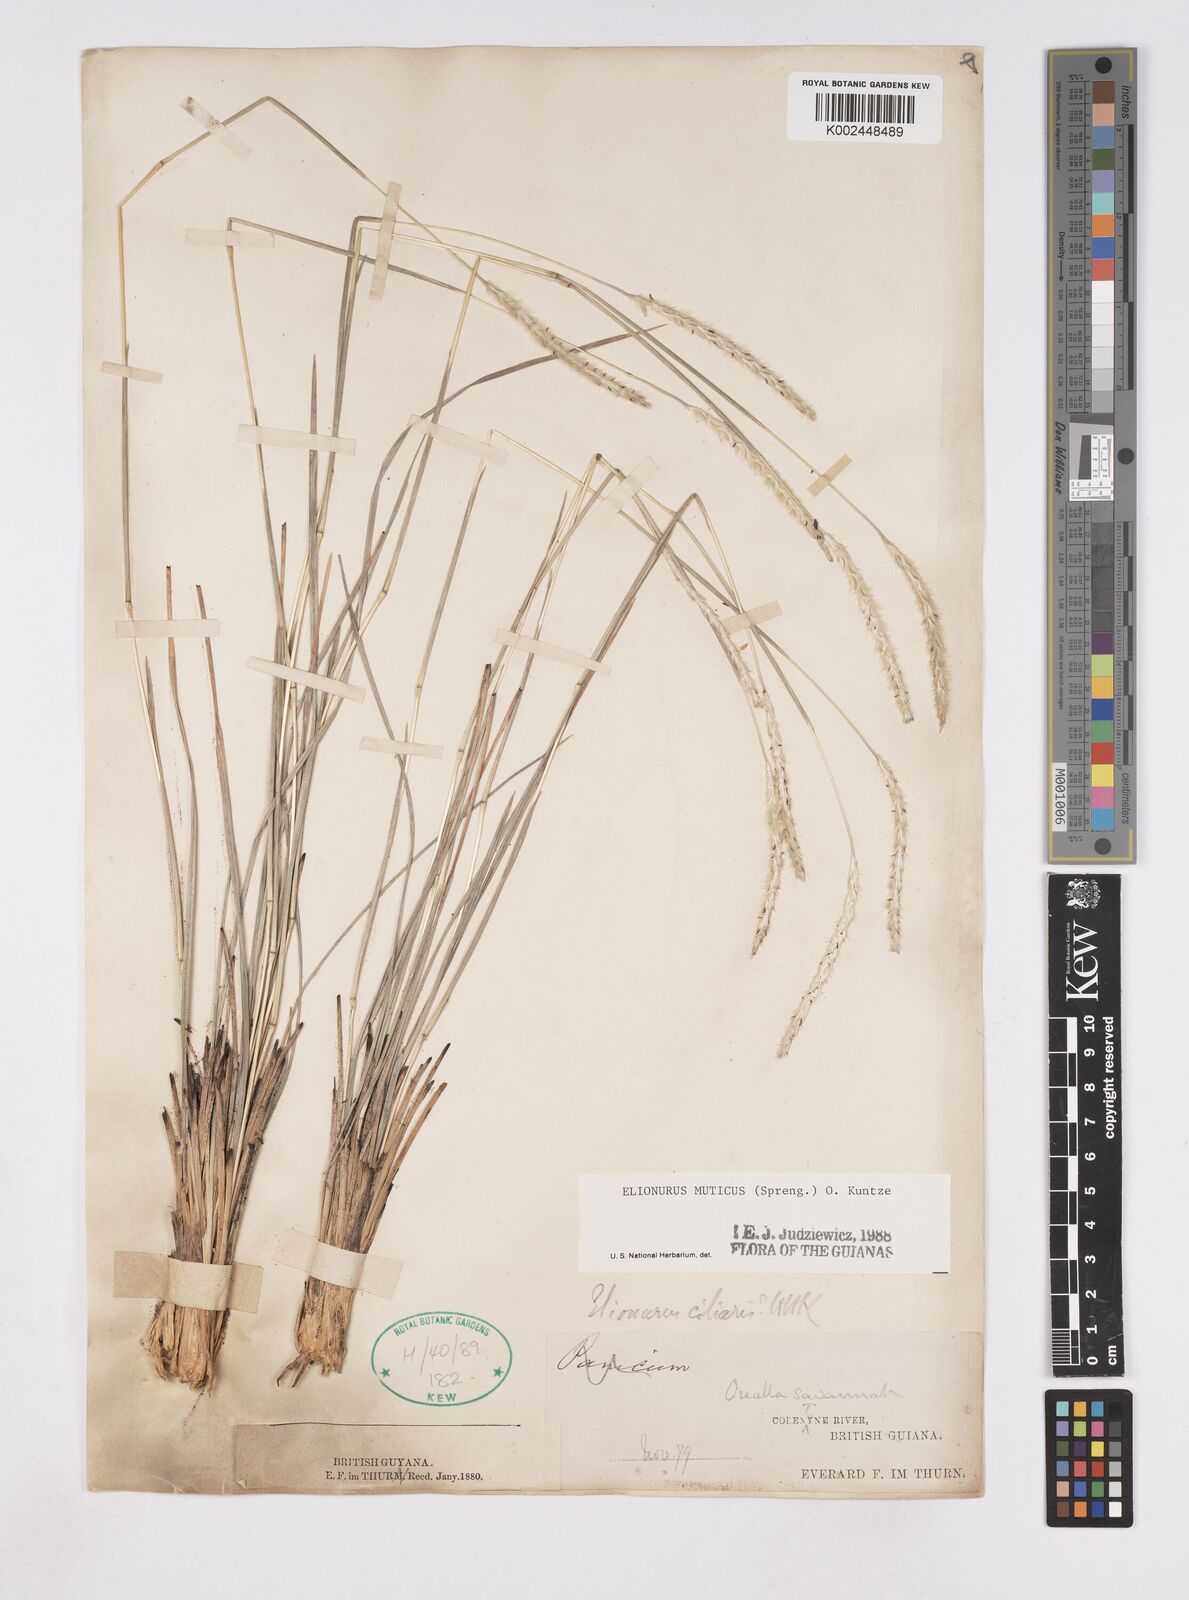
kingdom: Plantae
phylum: Tracheophyta
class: Liliopsida
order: Poales
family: Poaceae
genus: Elionurus
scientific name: Elionurus muticus
